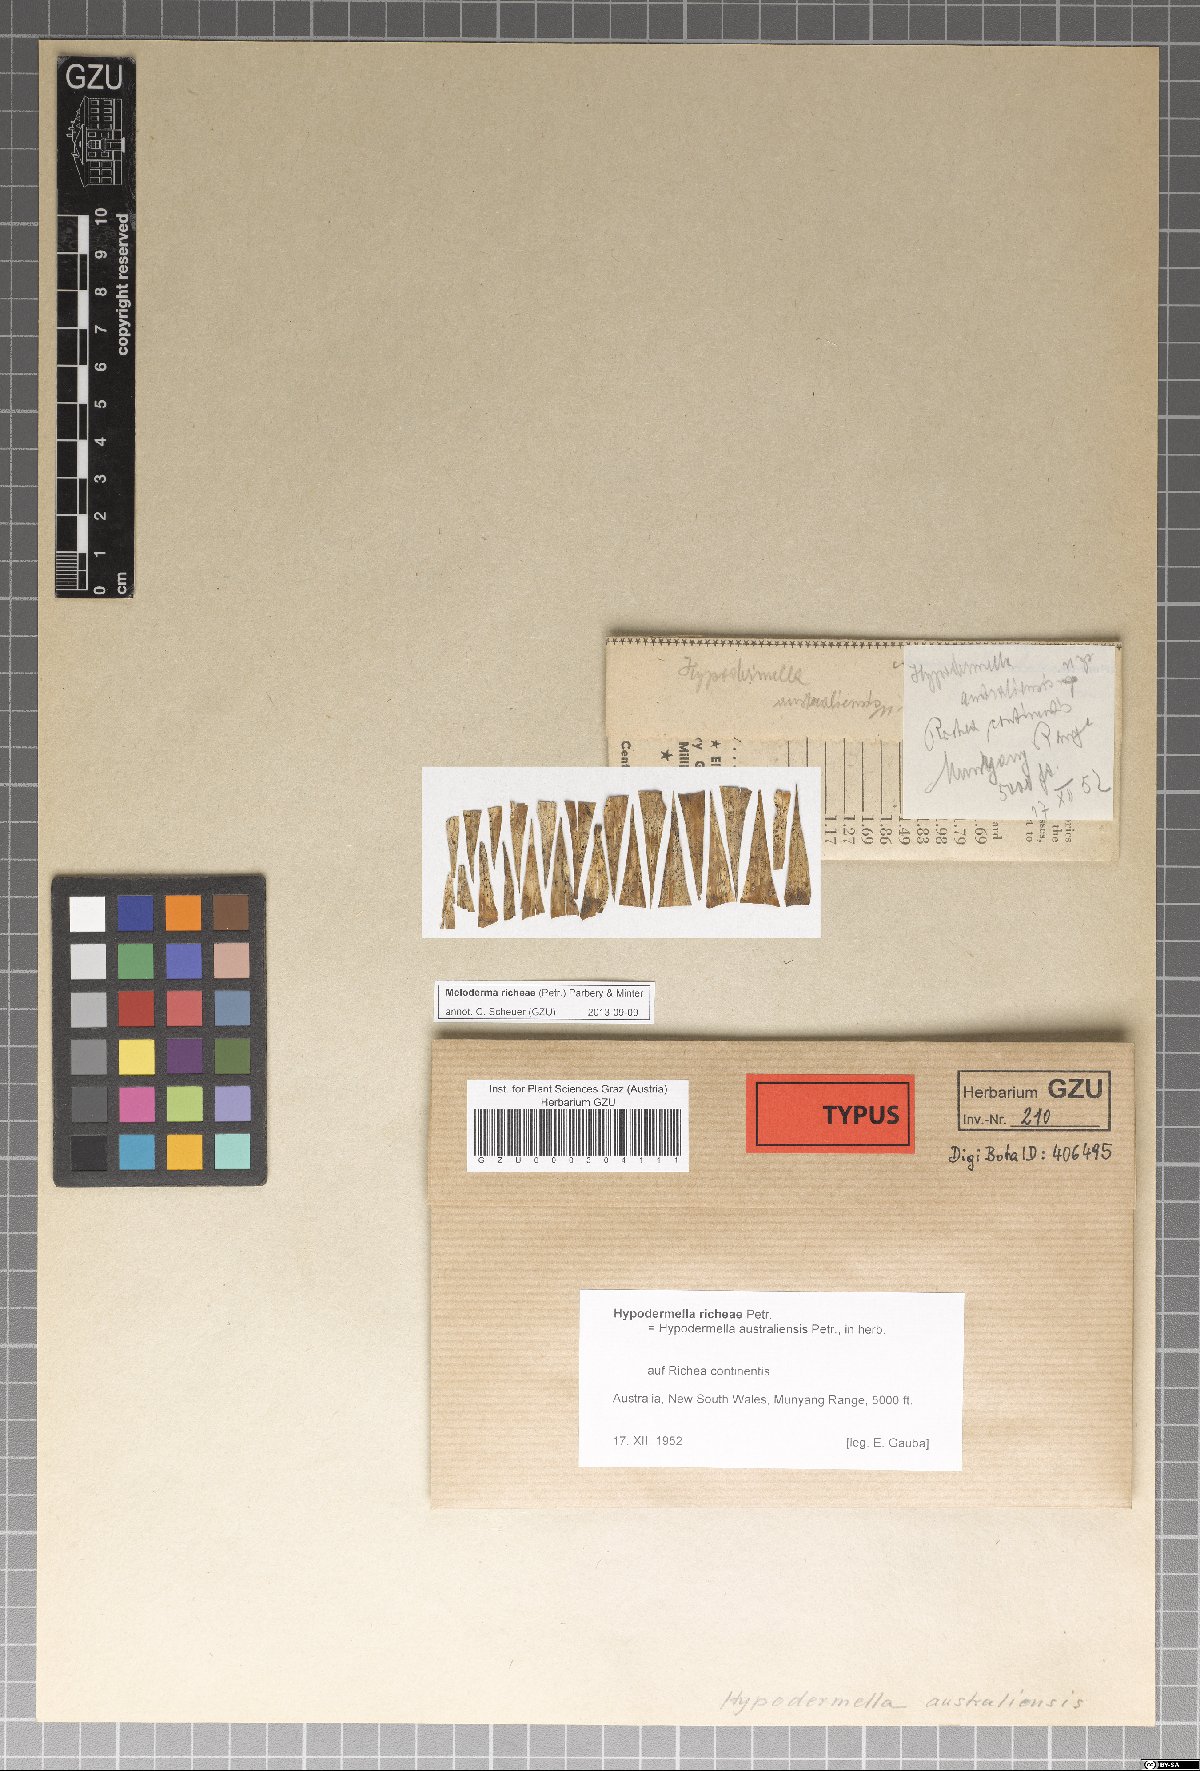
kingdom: Fungi
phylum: Ascomycota
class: Leotiomycetes
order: Rhytismatales
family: Rhytismataceae
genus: Meloderma
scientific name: Meloderma richeae
